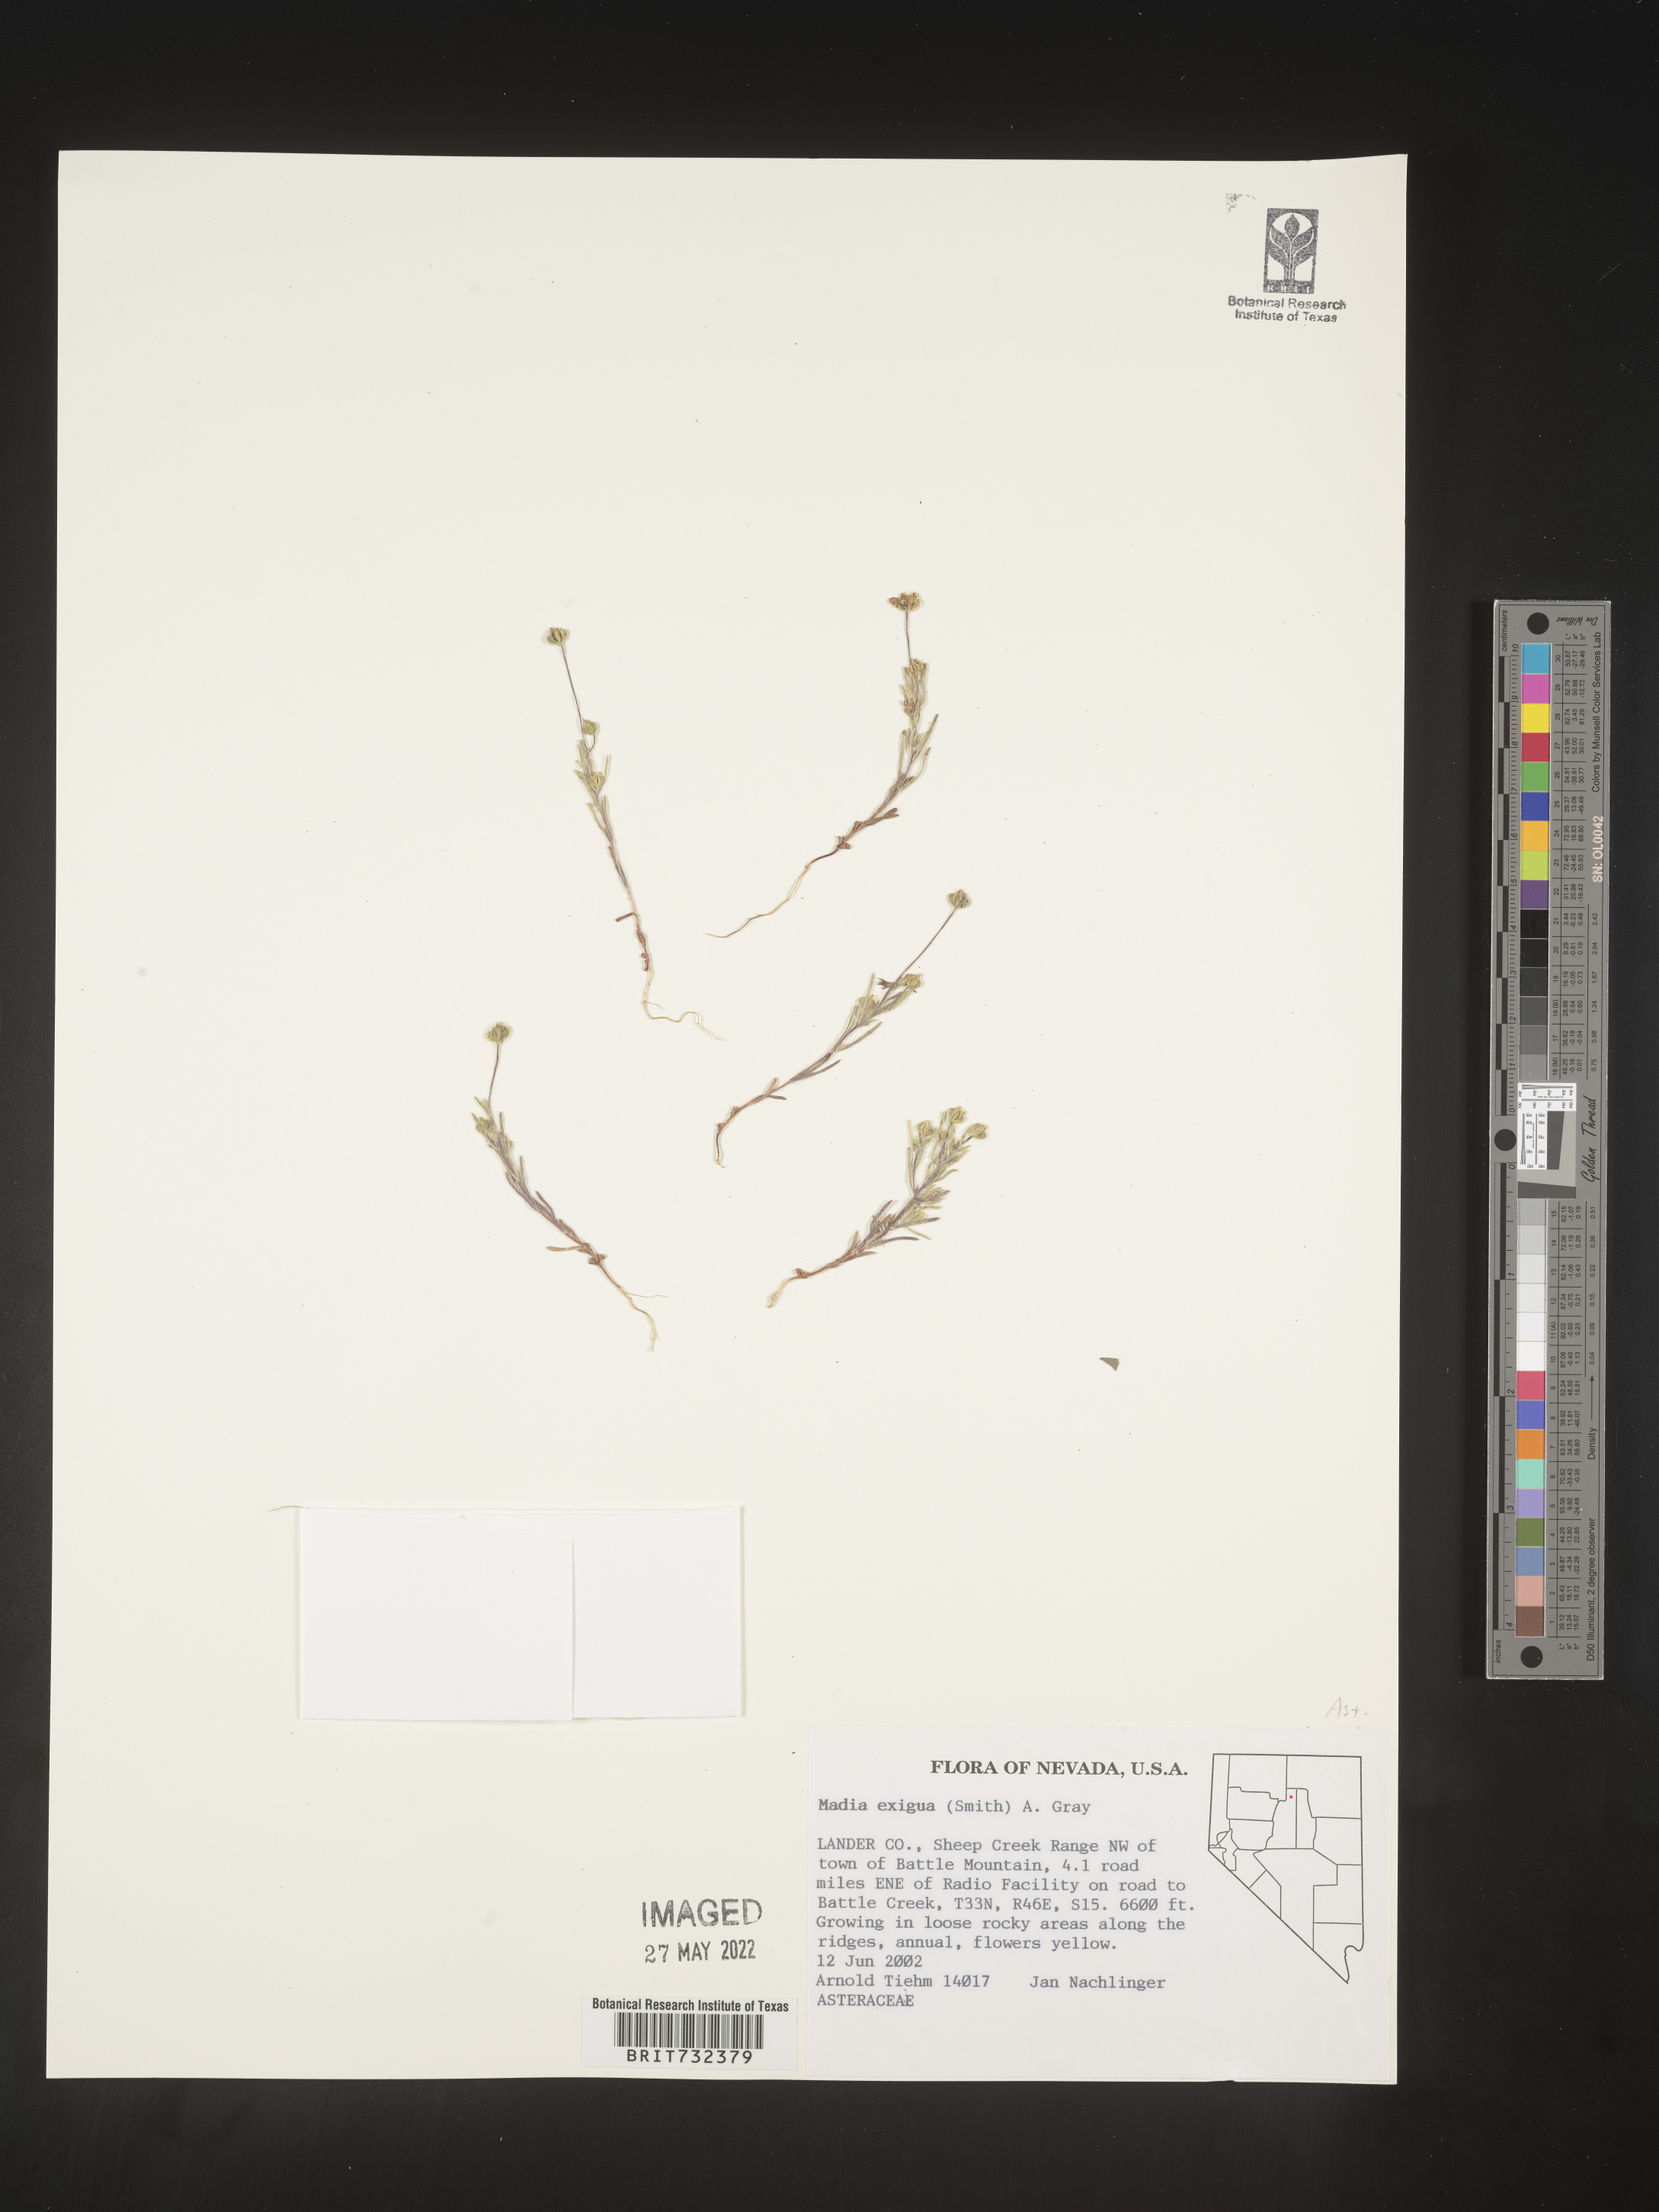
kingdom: Plantae
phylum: Tracheophyta
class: Magnoliopsida
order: Asterales
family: Asteraceae
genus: Madia
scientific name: Madia
